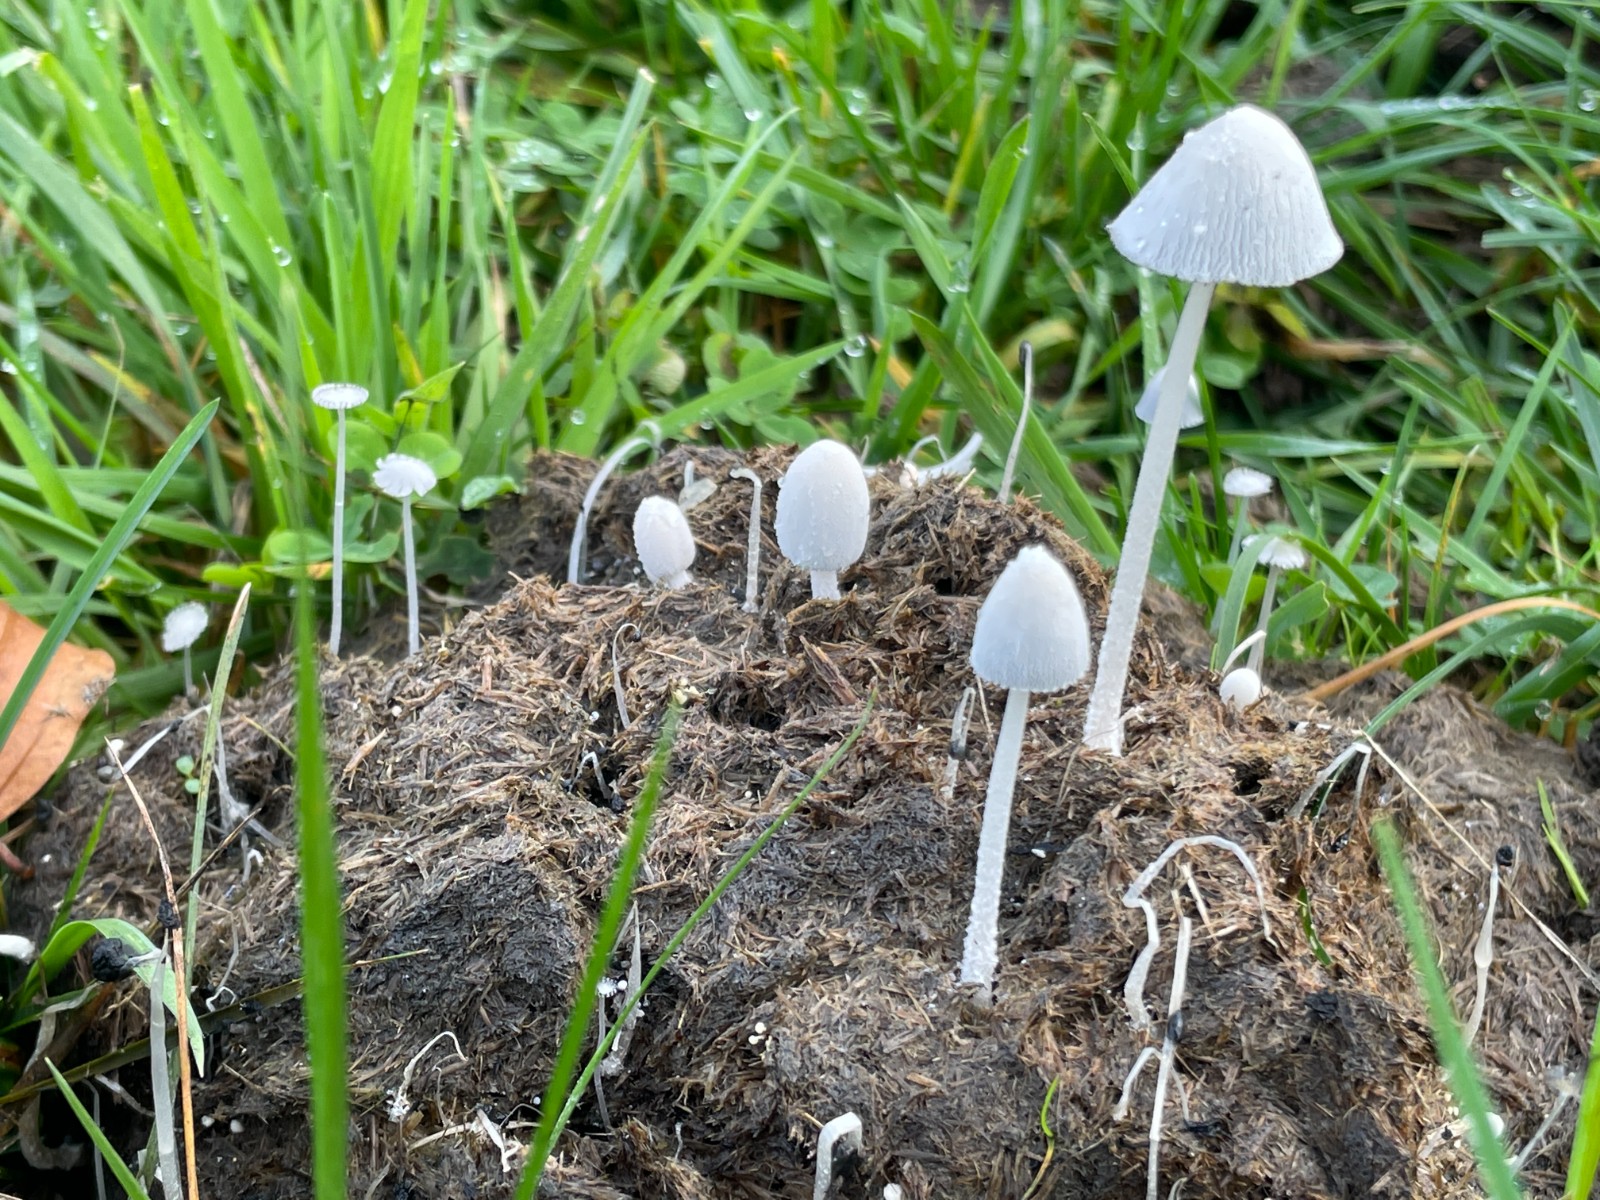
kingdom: Fungi
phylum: Basidiomycota
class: Agaricomycetes
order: Agaricales
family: Psathyrellaceae
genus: Coprinopsis
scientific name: Coprinopsis nivea
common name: snehvid blækhat
